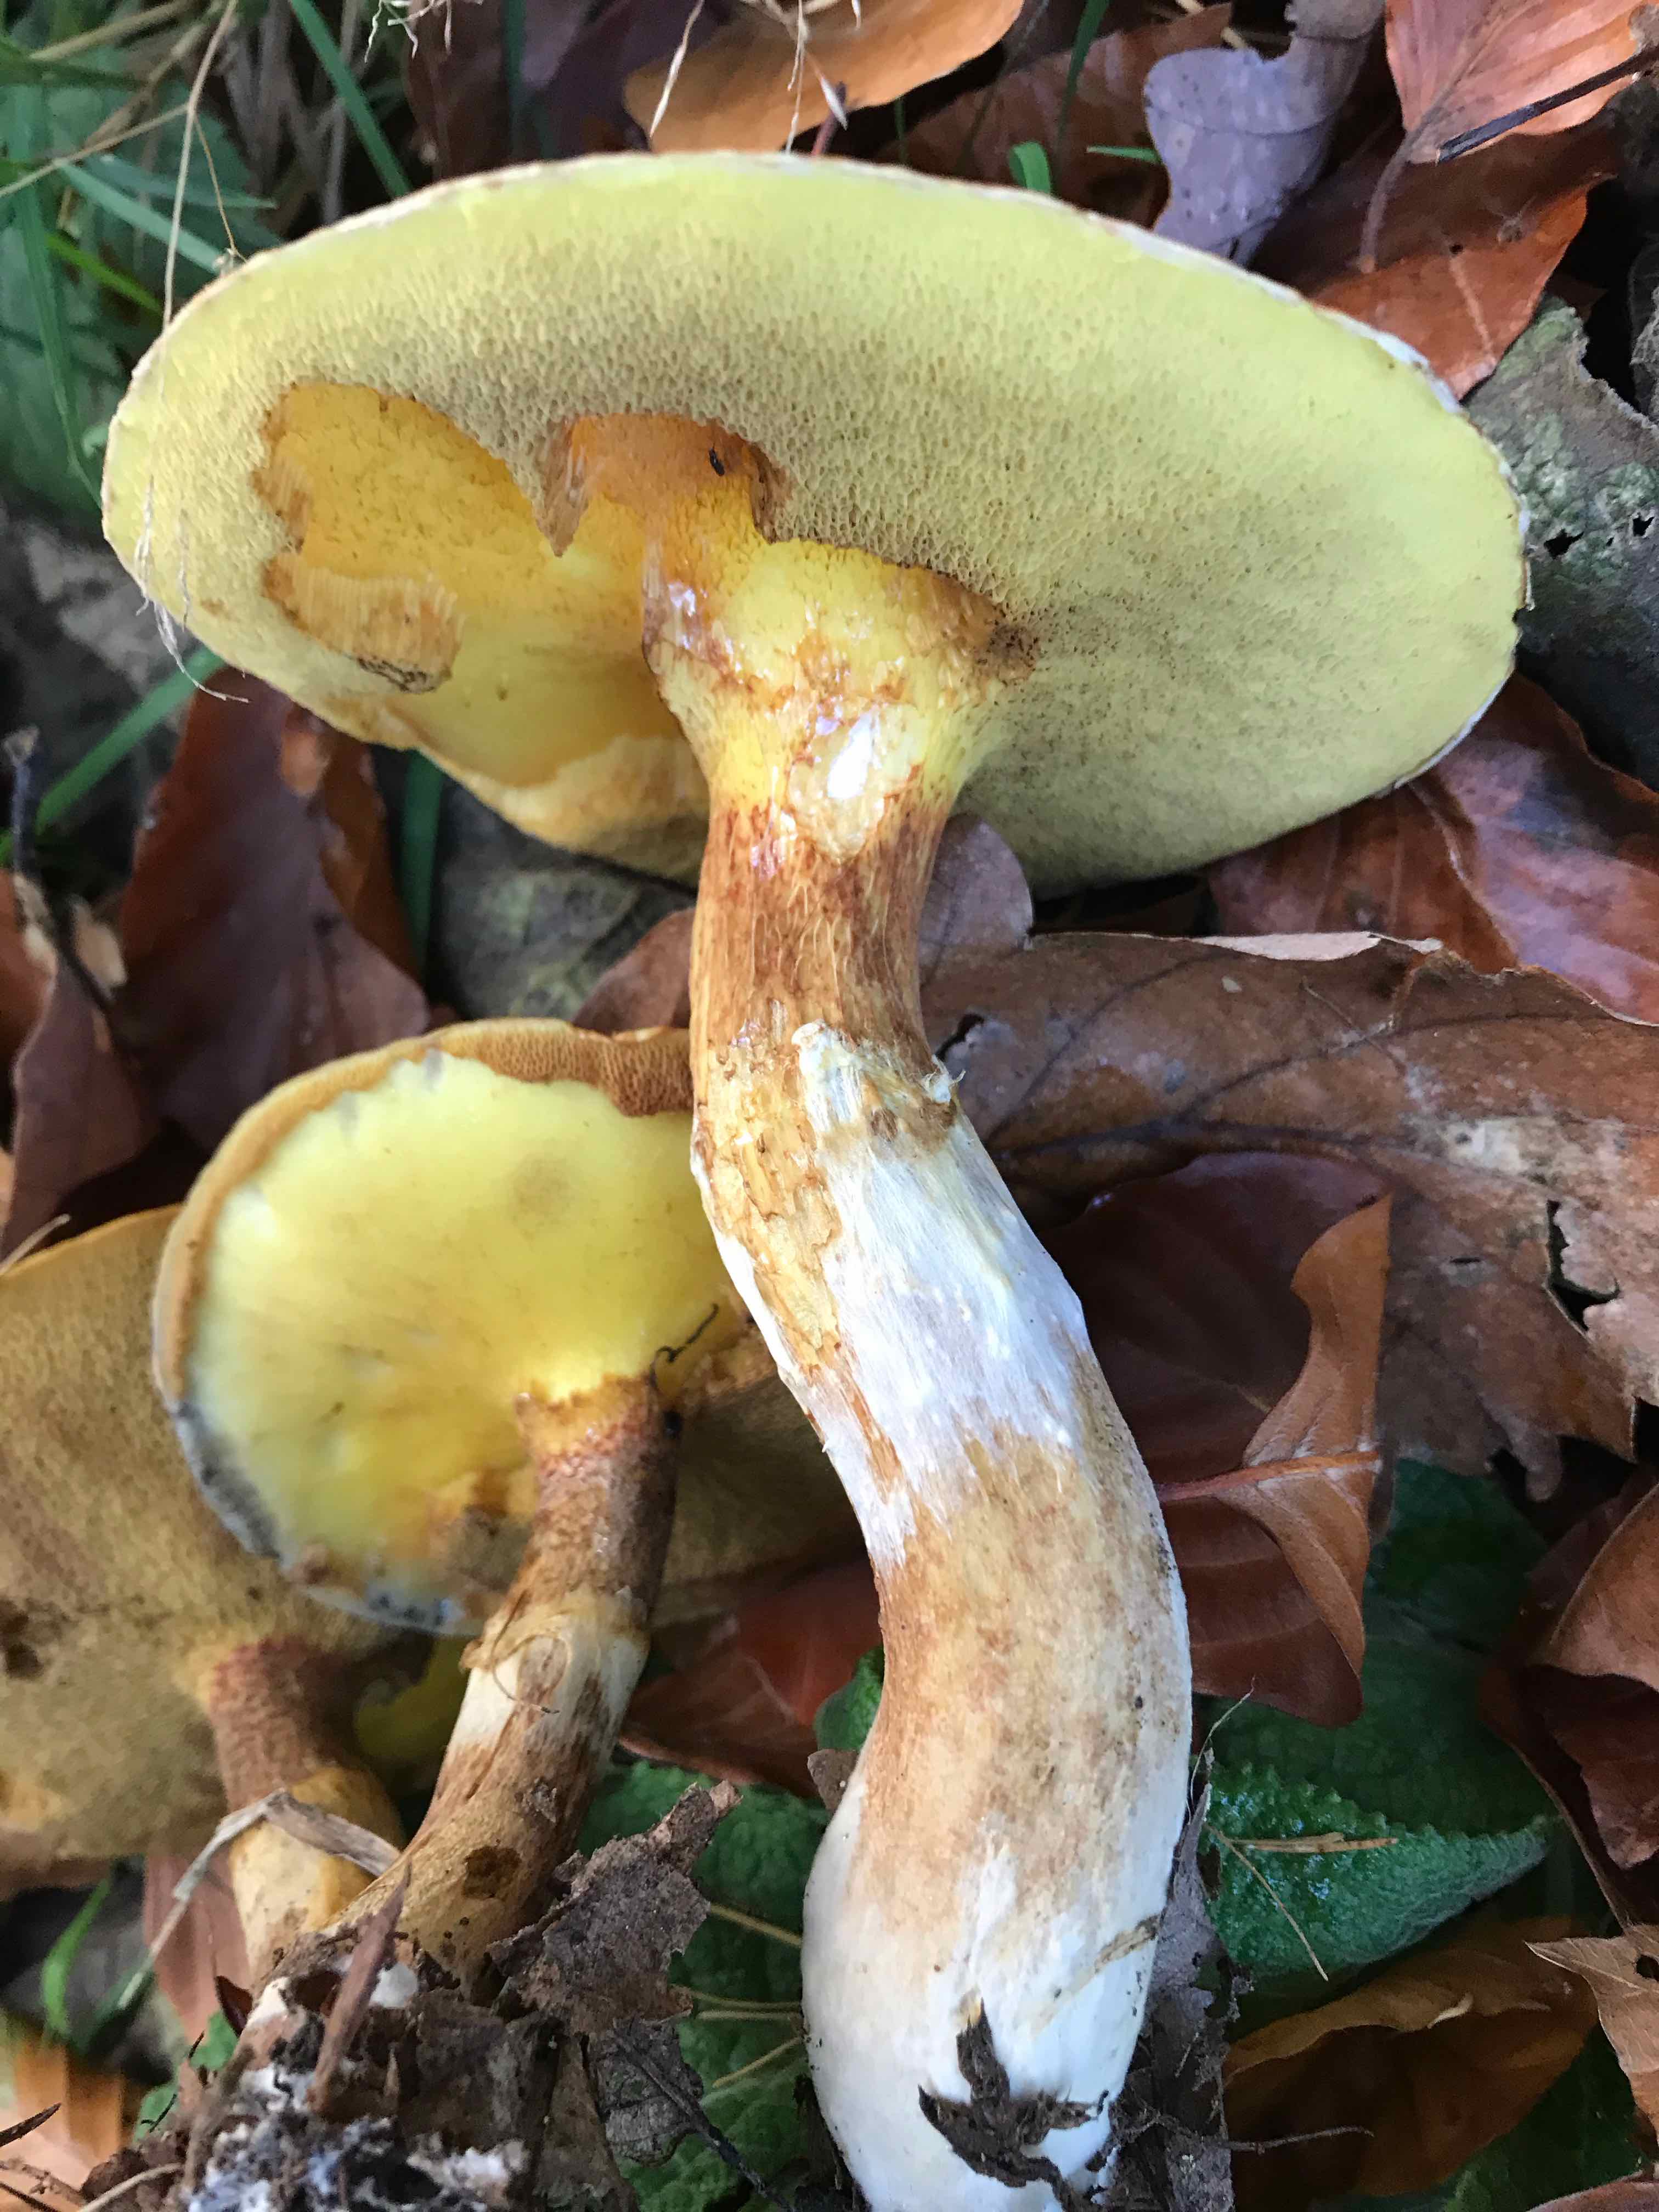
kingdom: Fungi
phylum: Basidiomycota
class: Agaricomycetes
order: Boletales
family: Suillaceae
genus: Suillus
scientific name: Suillus grevillei
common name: lærke-slimrørhat
